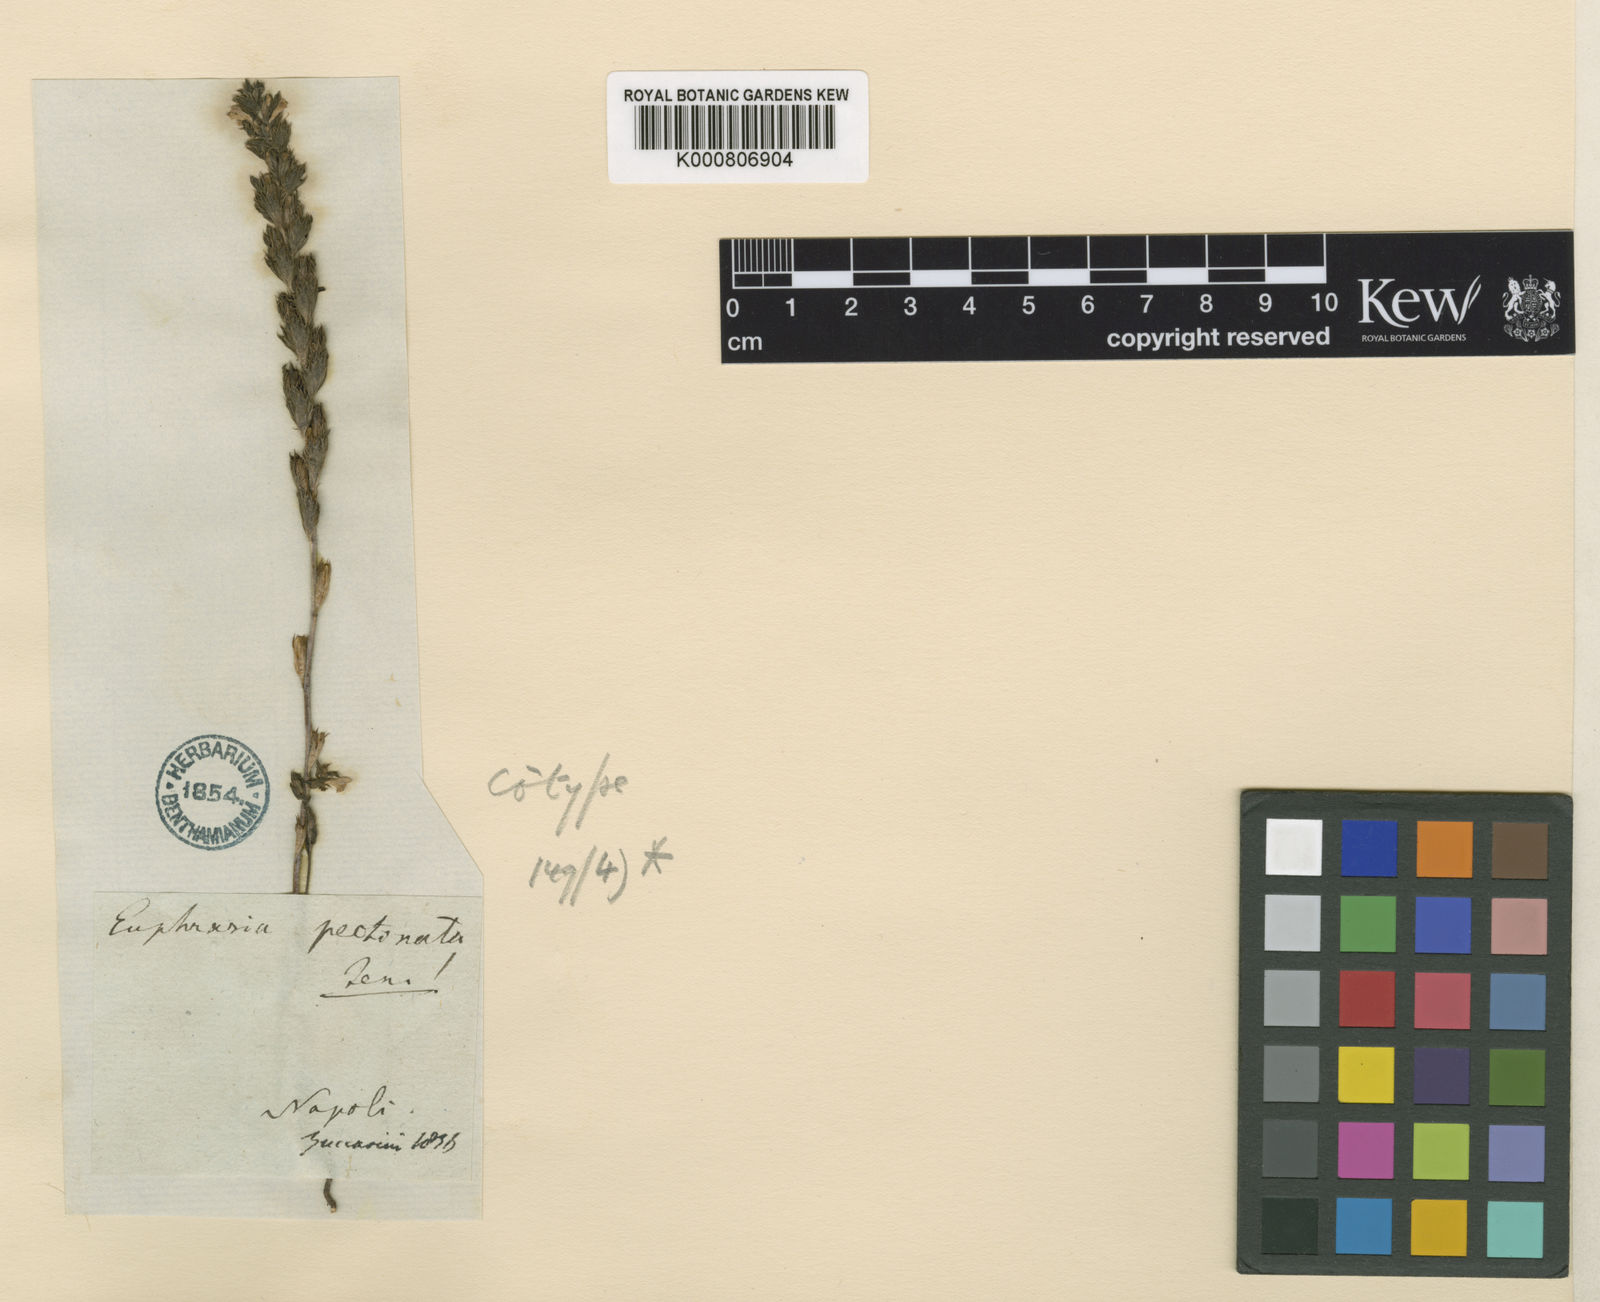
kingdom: Plantae
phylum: Tracheophyta
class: Magnoliopsida
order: Lamiales
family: Orobanchaceae
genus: Euphrasia
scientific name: Euphrasia pectinata
